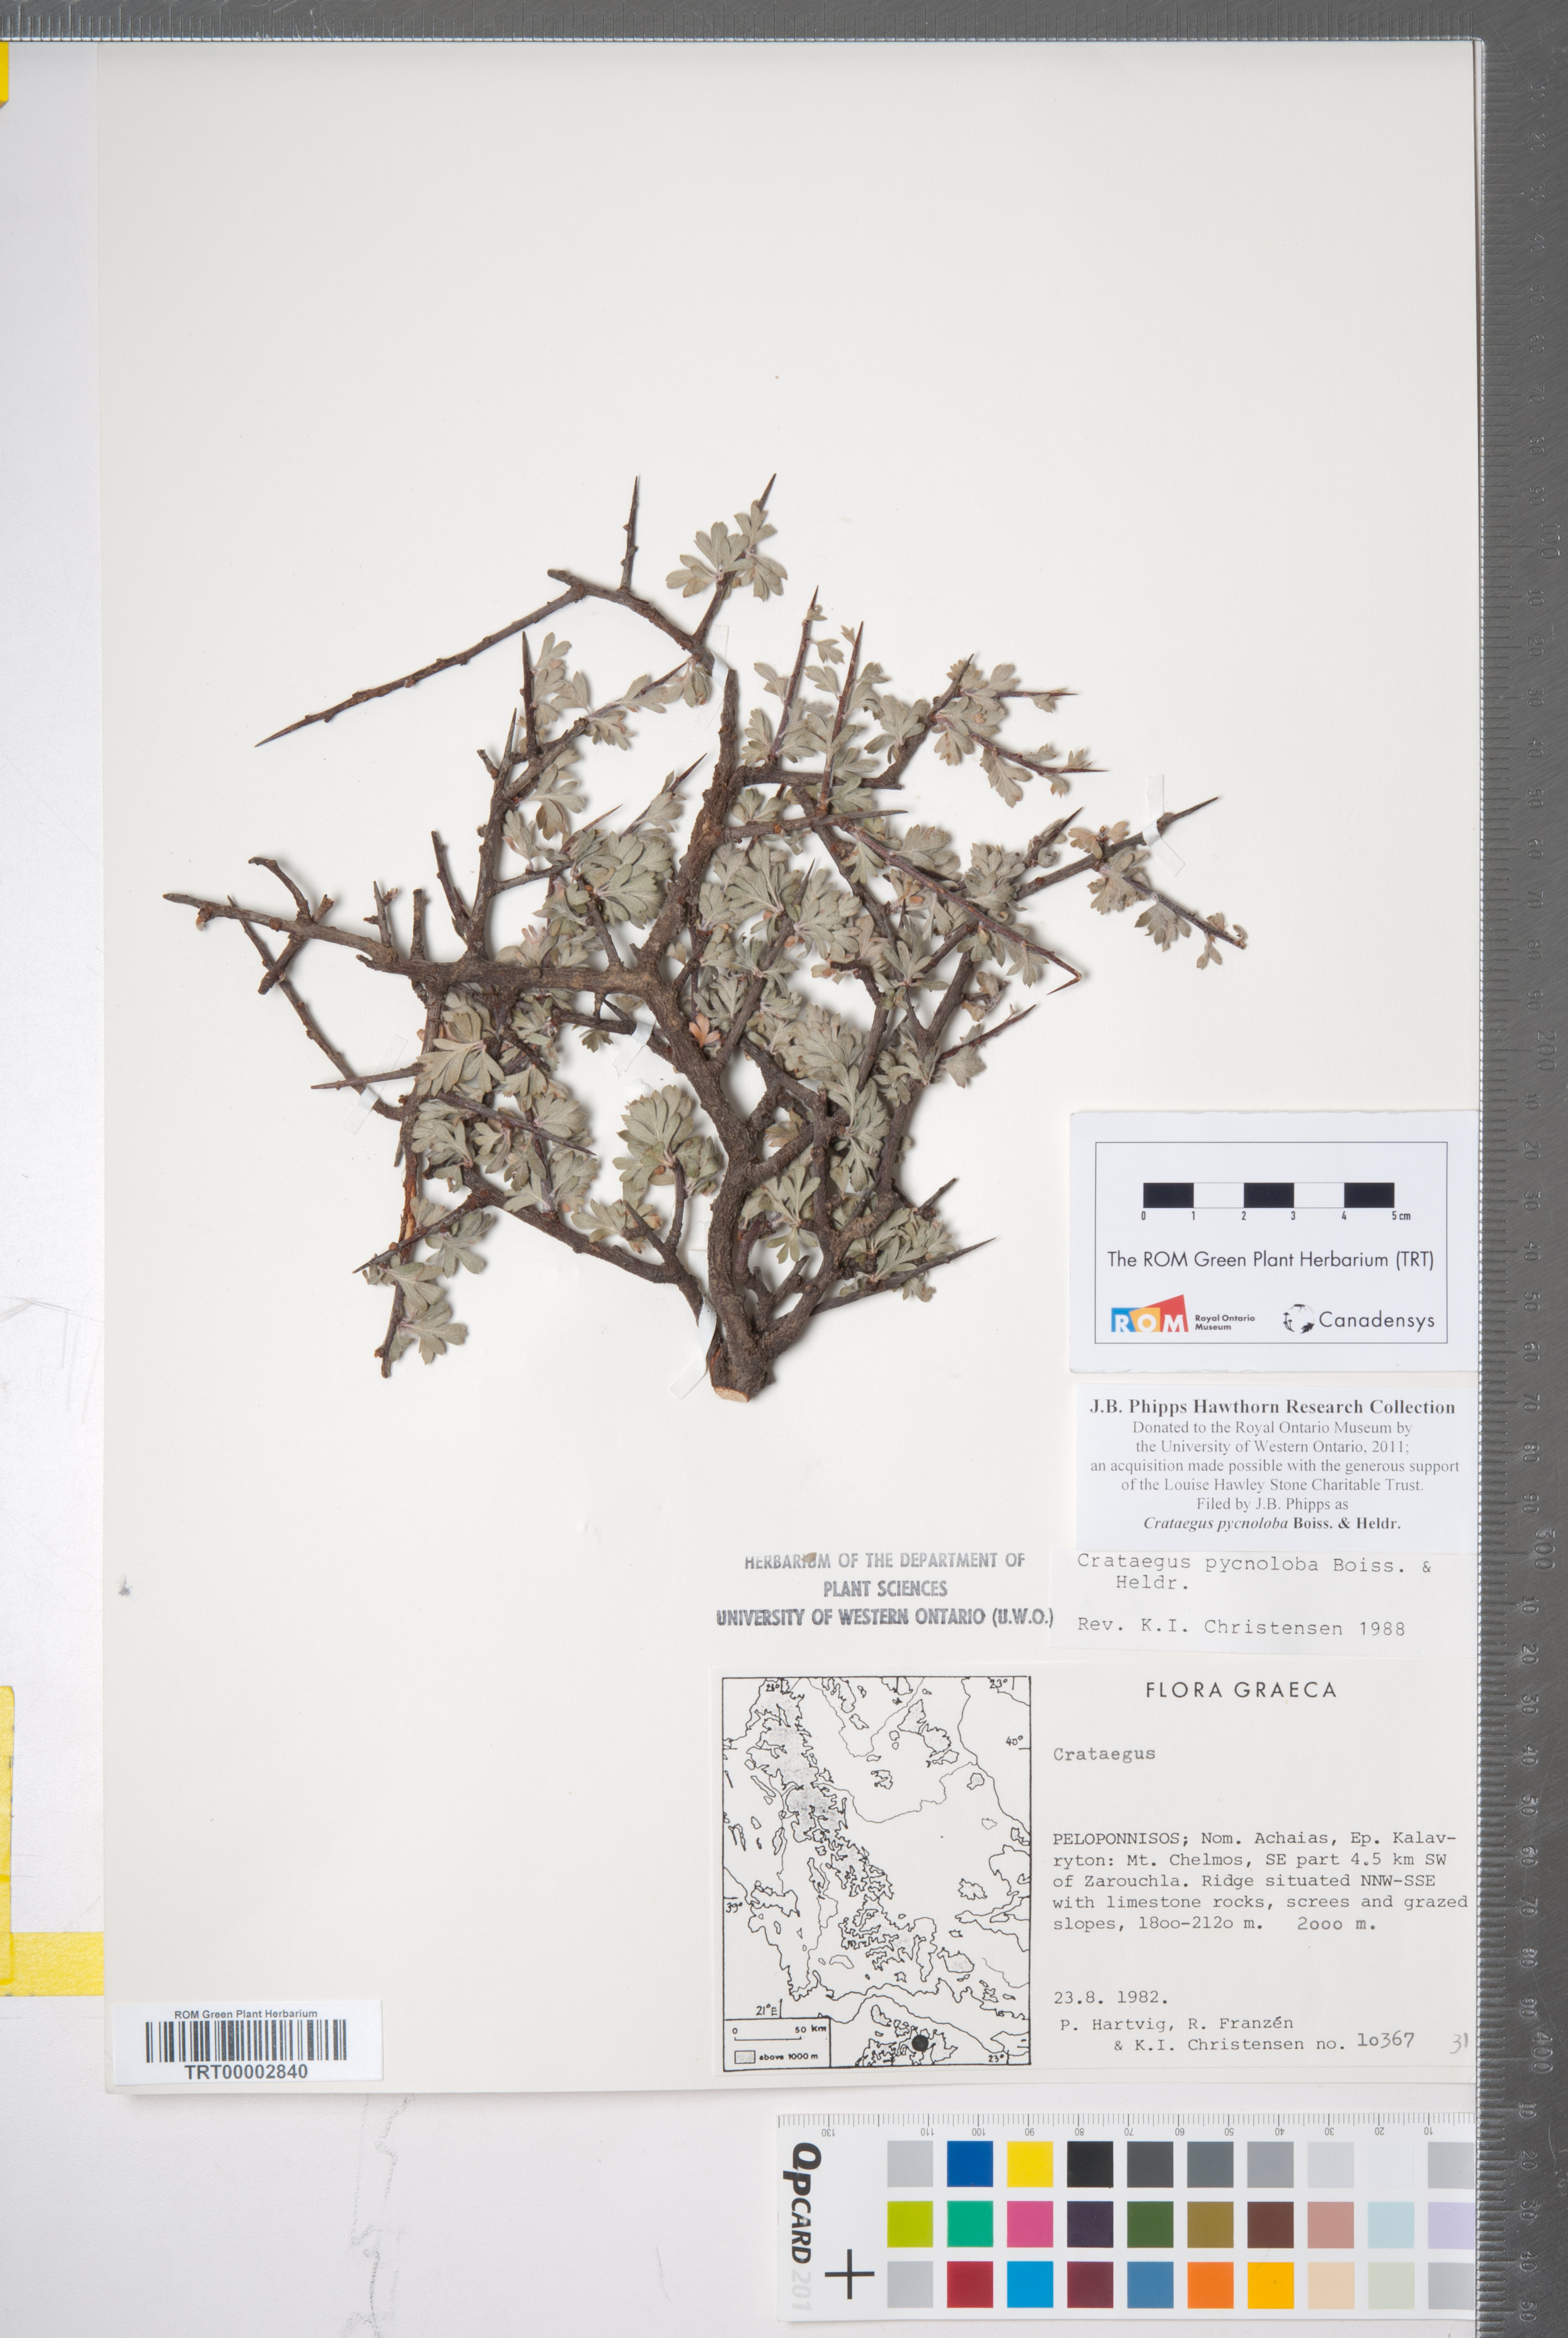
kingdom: Plantae
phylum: Tracheophyta
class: Magnoliopsida
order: Rosales
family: Rosaceae
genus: Crataegus
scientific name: Crataegus pycnoloba
